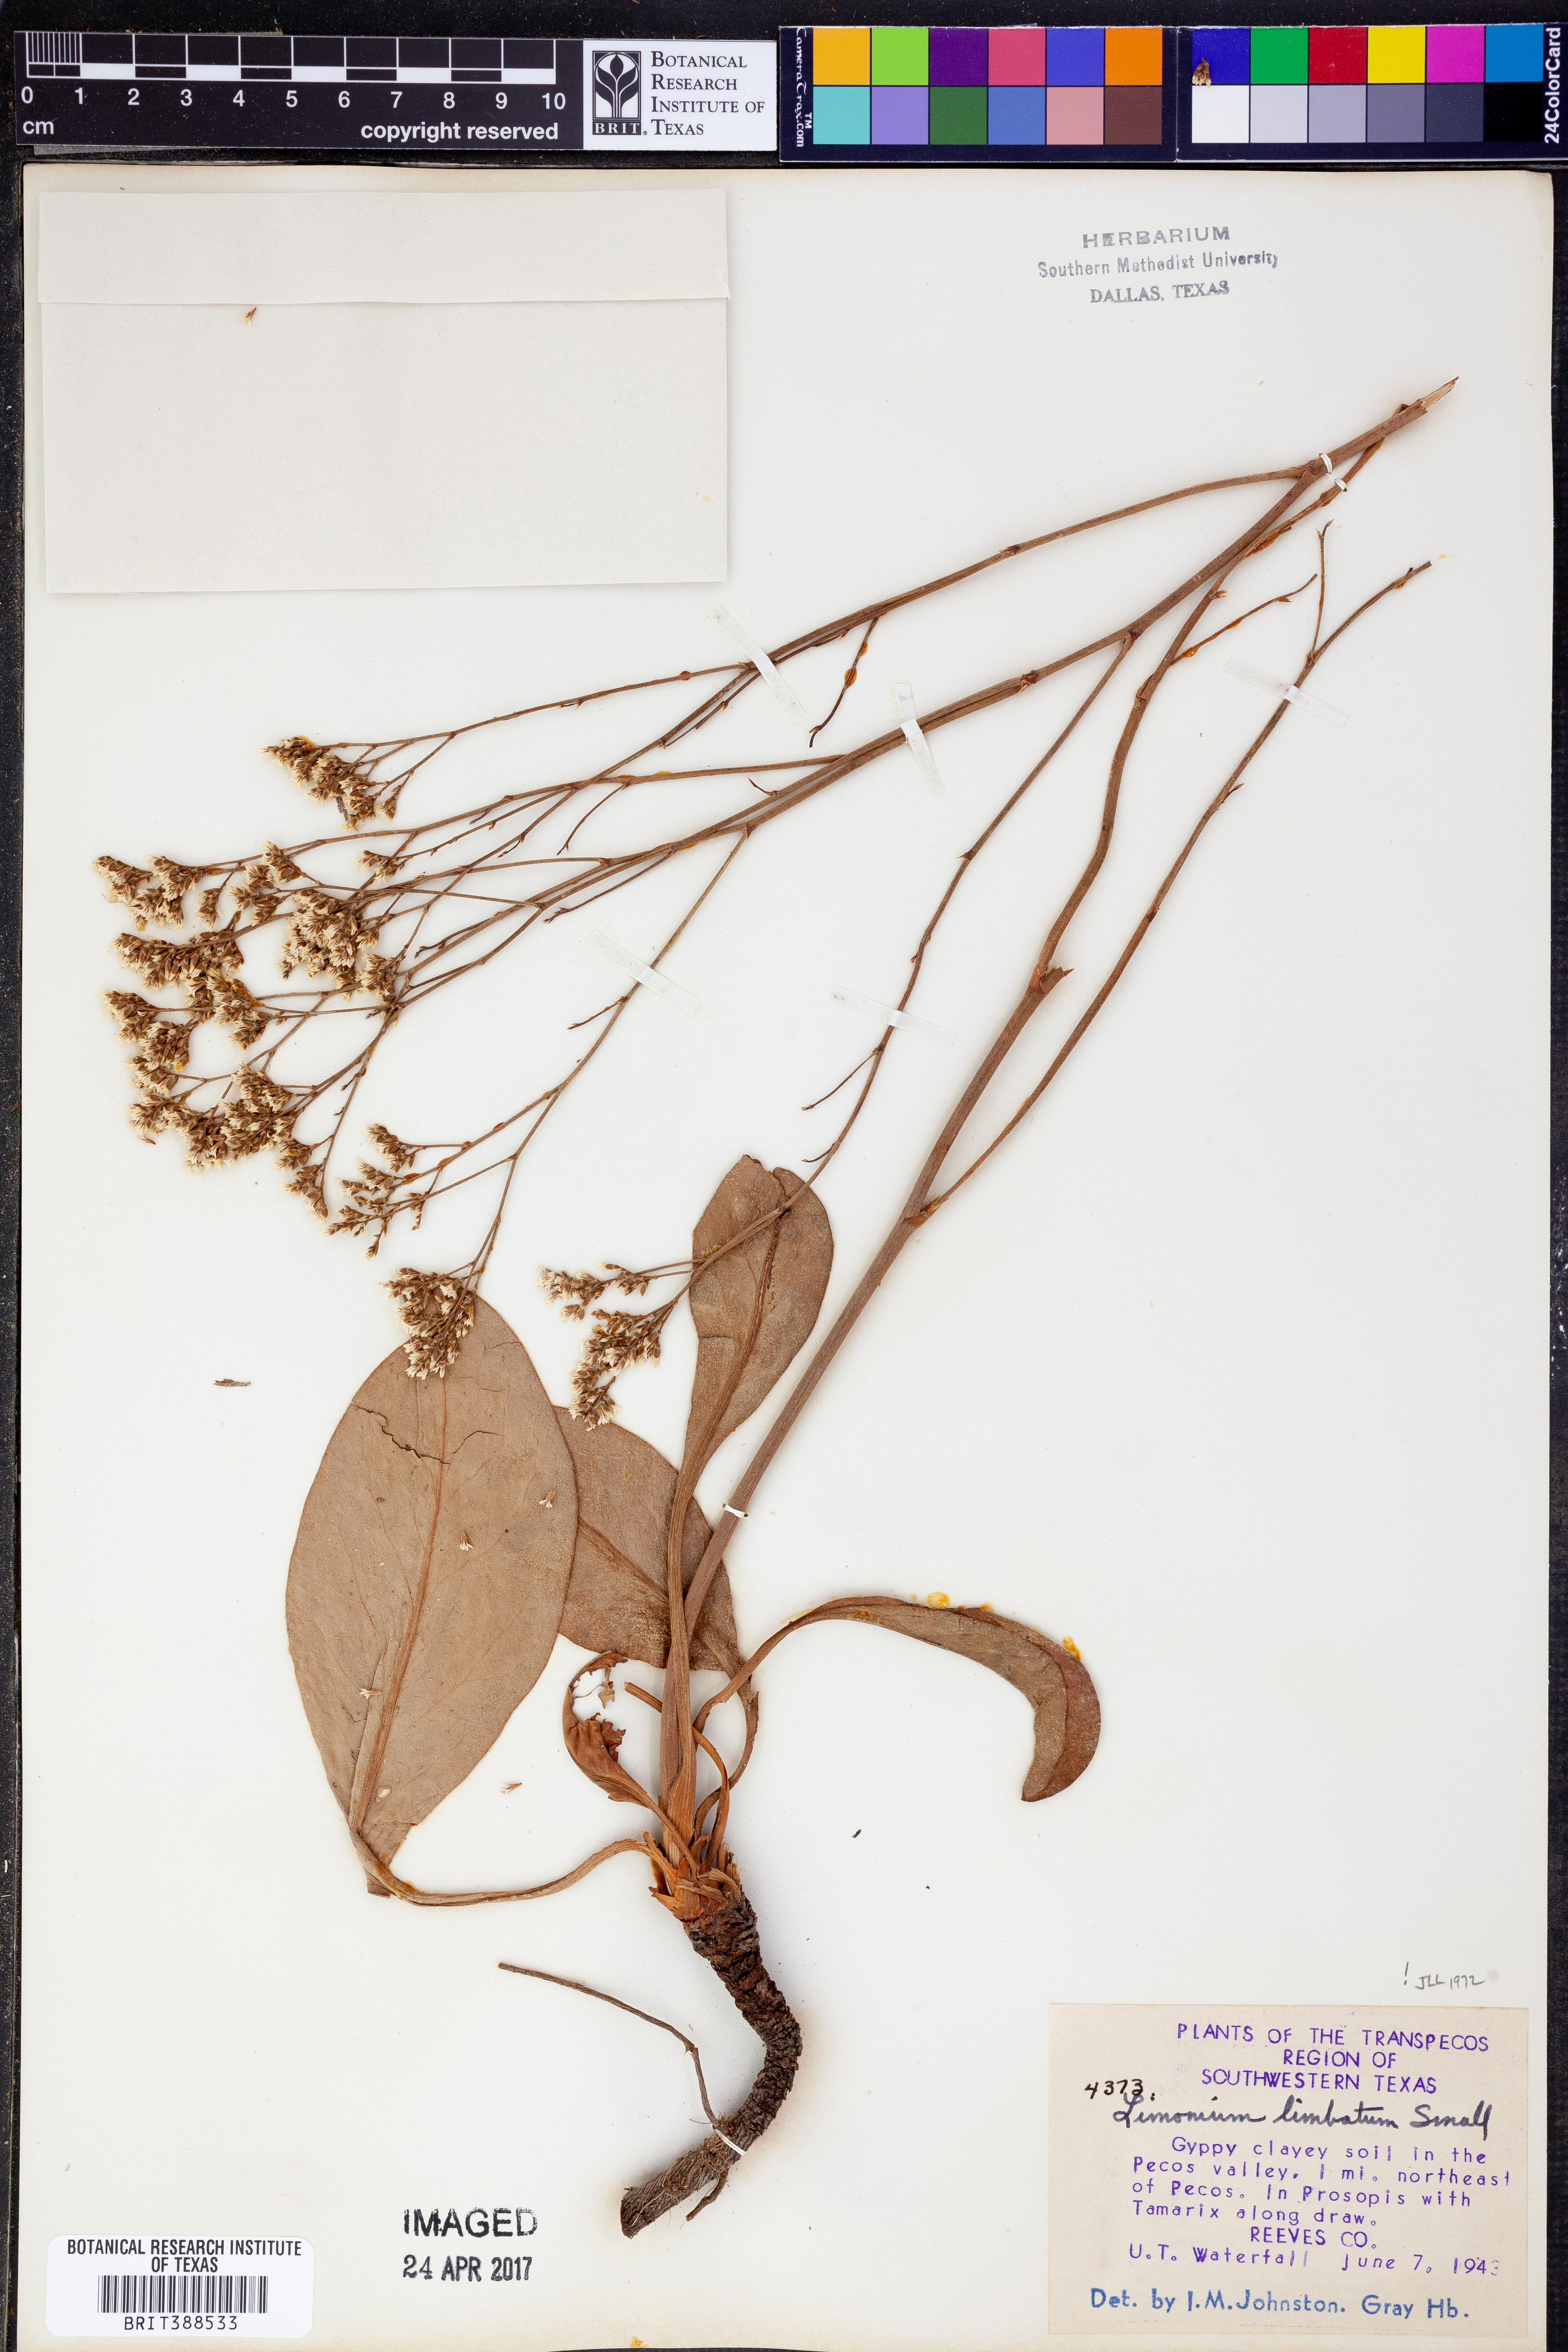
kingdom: Plantae
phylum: Tracheophyta
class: Magnoliopsida
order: Caryophyllales
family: Plumbaginaceae
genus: Limonium
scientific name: Limonium limbatum
